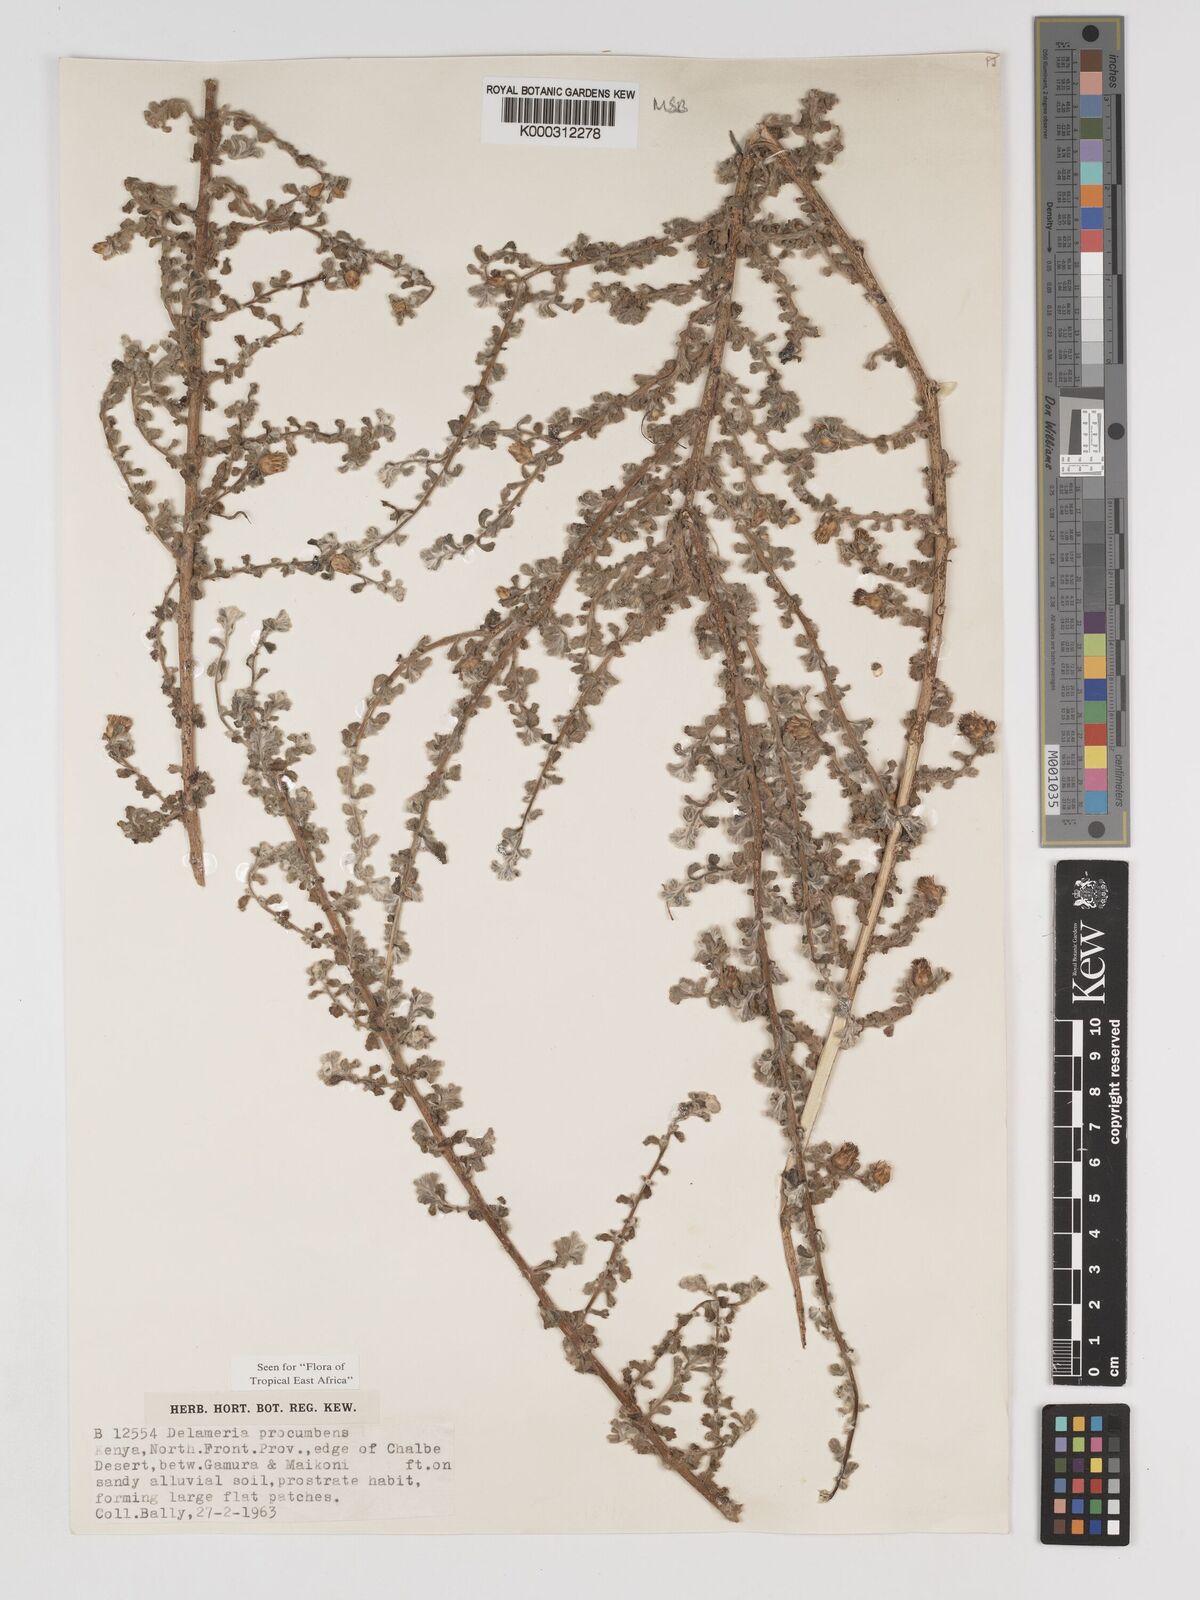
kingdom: Plantae
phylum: Tracheophyta
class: Magnoliopsida
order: Asterales
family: Asteraceae
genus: Delamerea
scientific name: Delamerea procumbens
